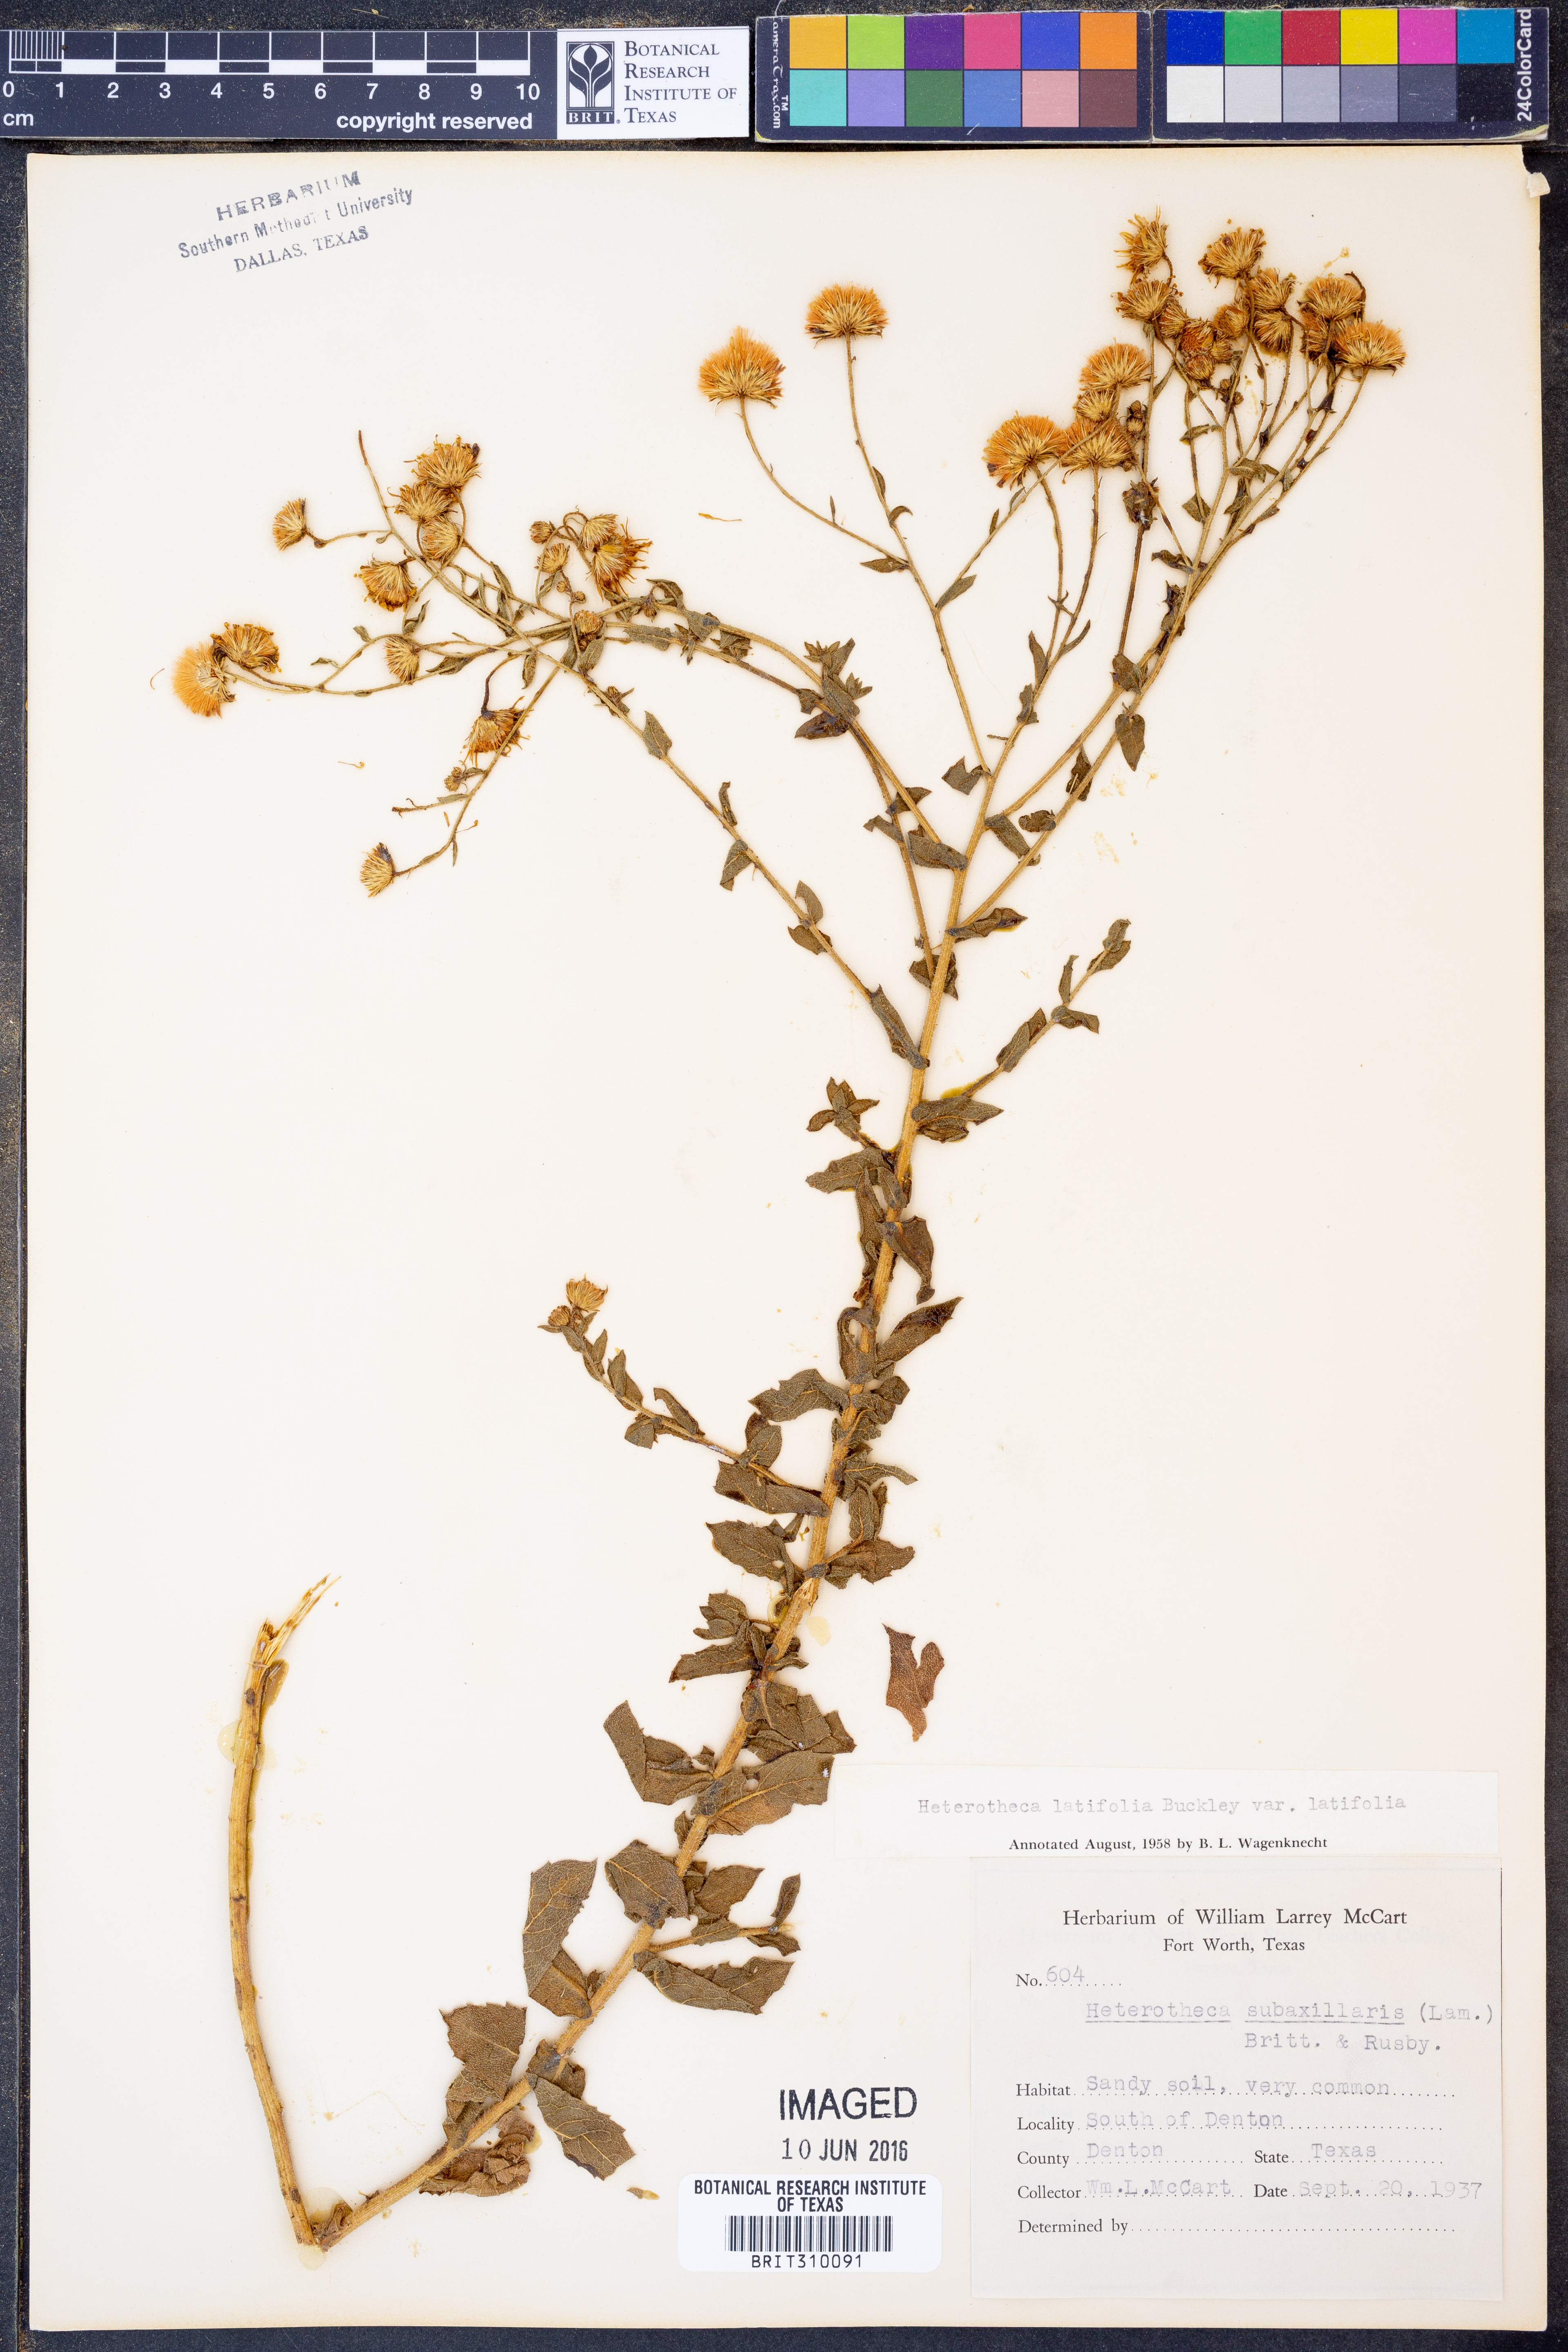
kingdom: Plantae
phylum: Tracheophyta
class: Magnoliopsida
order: Asterales
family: Asteraceae
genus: Heterotheca
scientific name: Heterotheca subaxillaris
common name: Camphorweed
